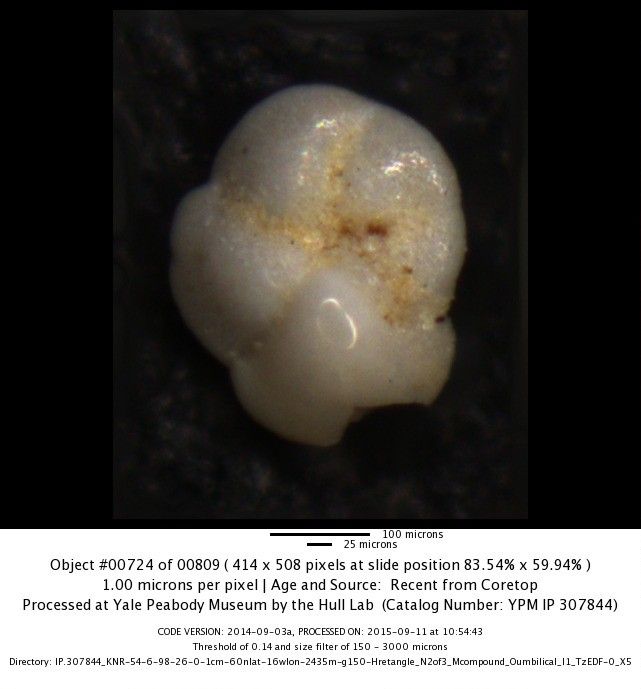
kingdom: Chromista
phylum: Foraminifera
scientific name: Foraminifera
